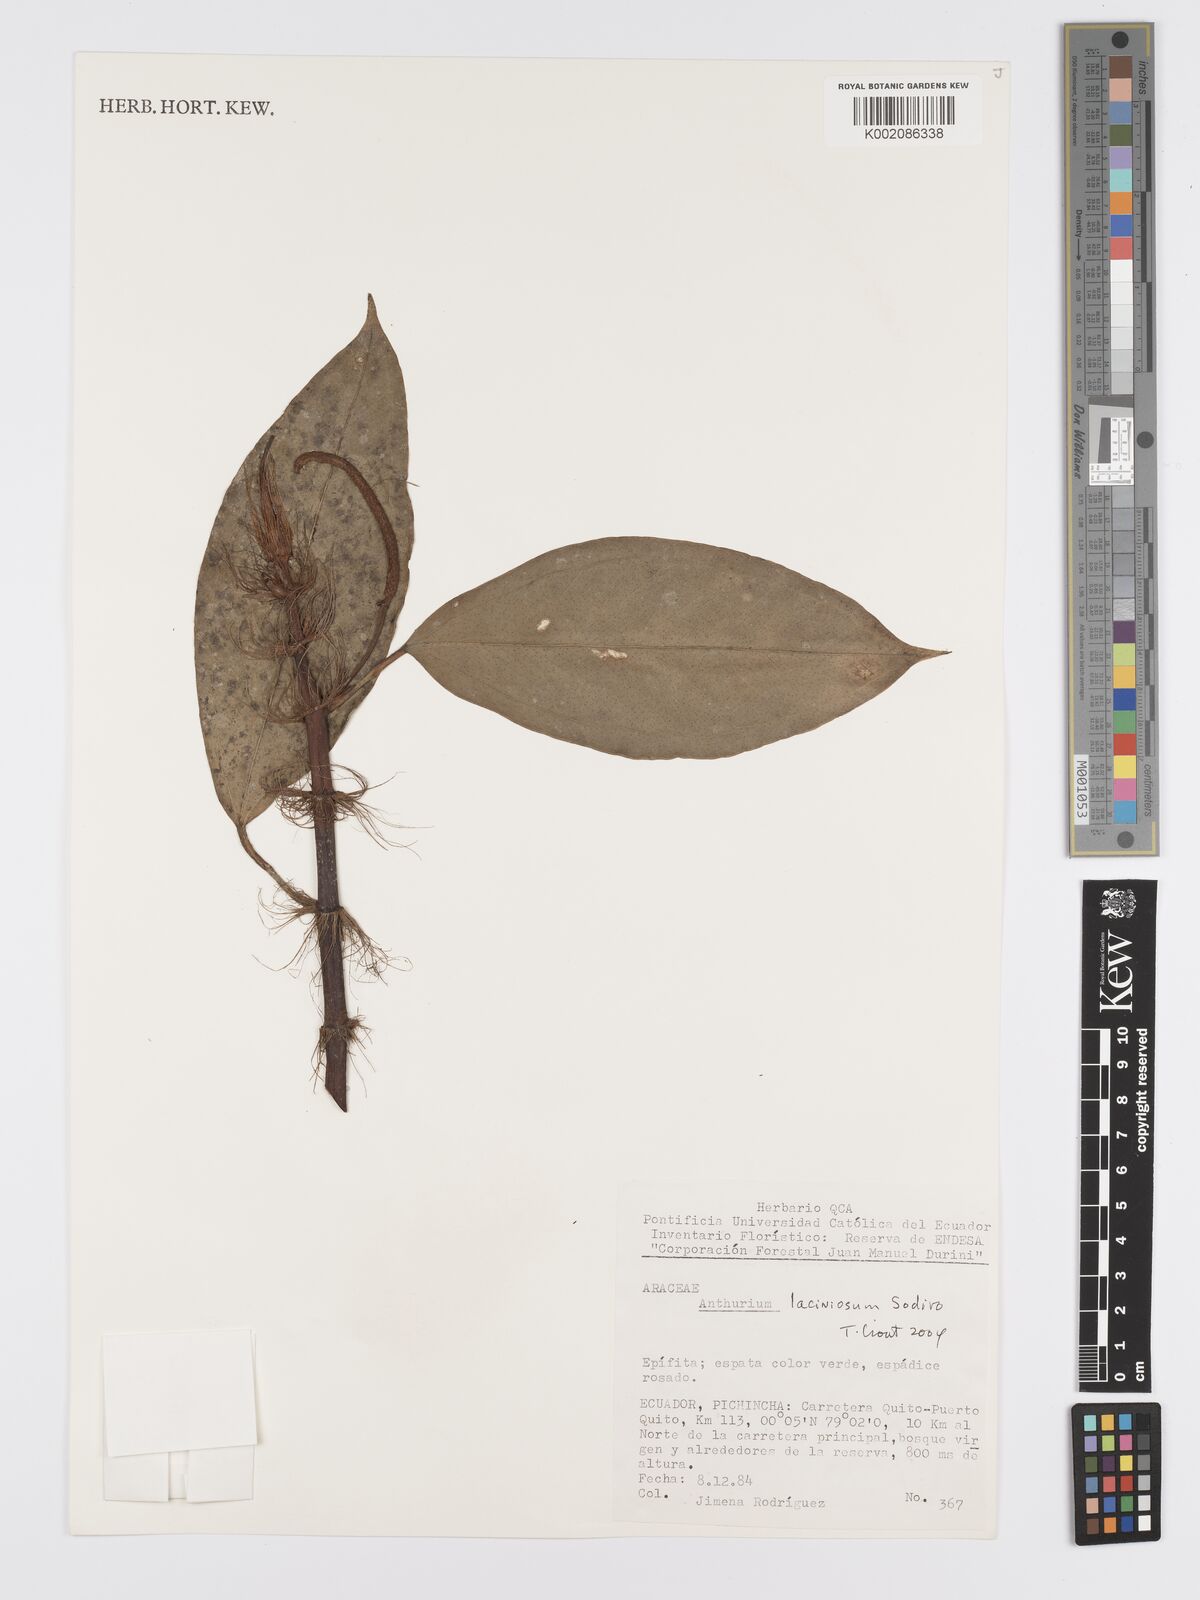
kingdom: Plantae
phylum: Tracheophyta
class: Liliopsida
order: Alismatales
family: Araceae
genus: Anthurium
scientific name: Anthurium laciniosum
